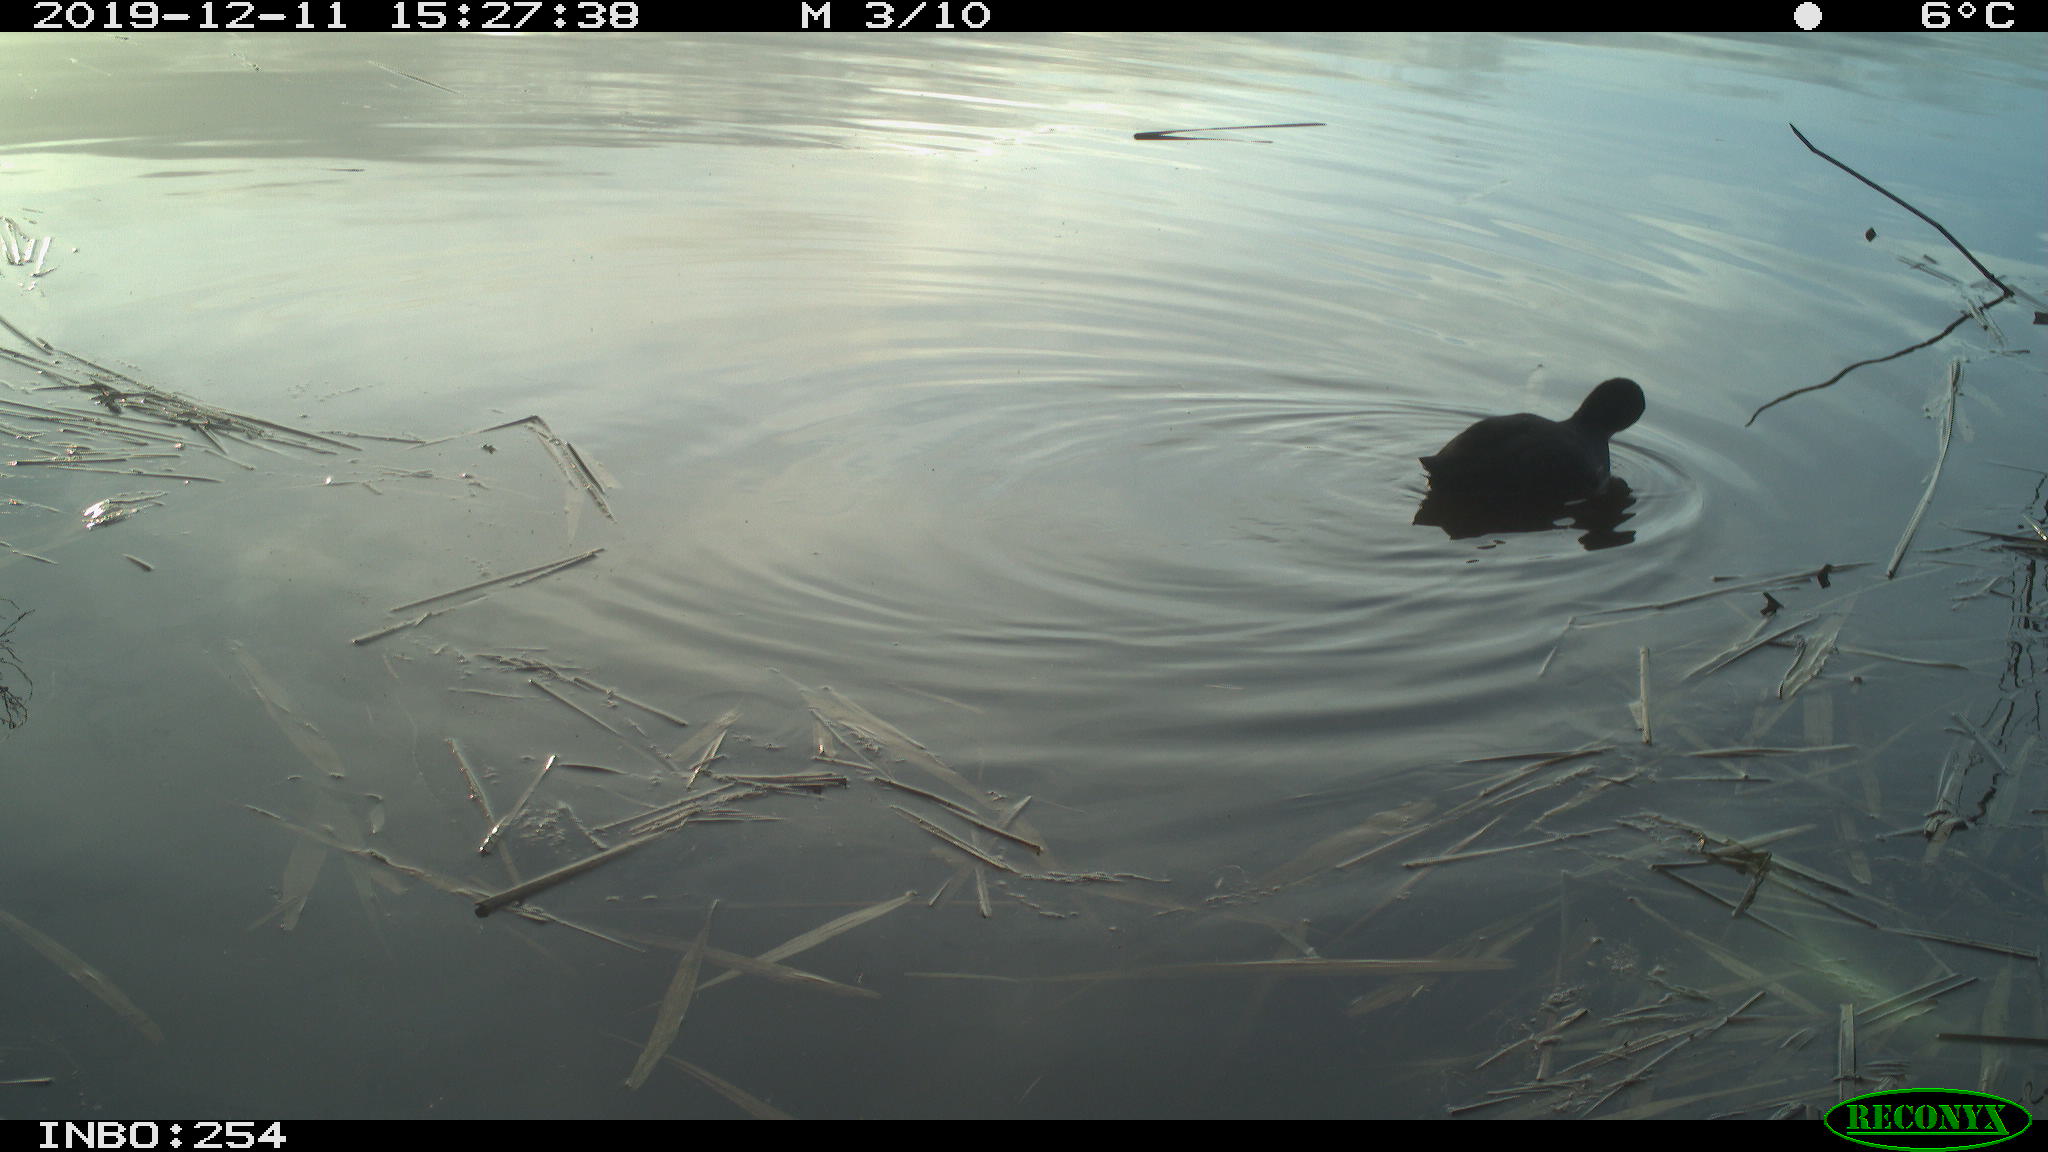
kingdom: Animalia
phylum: Chordata
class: Aves
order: Gruiformes
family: Rallidae
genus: Fulica
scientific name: Fulica atra
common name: Eurasian coot
